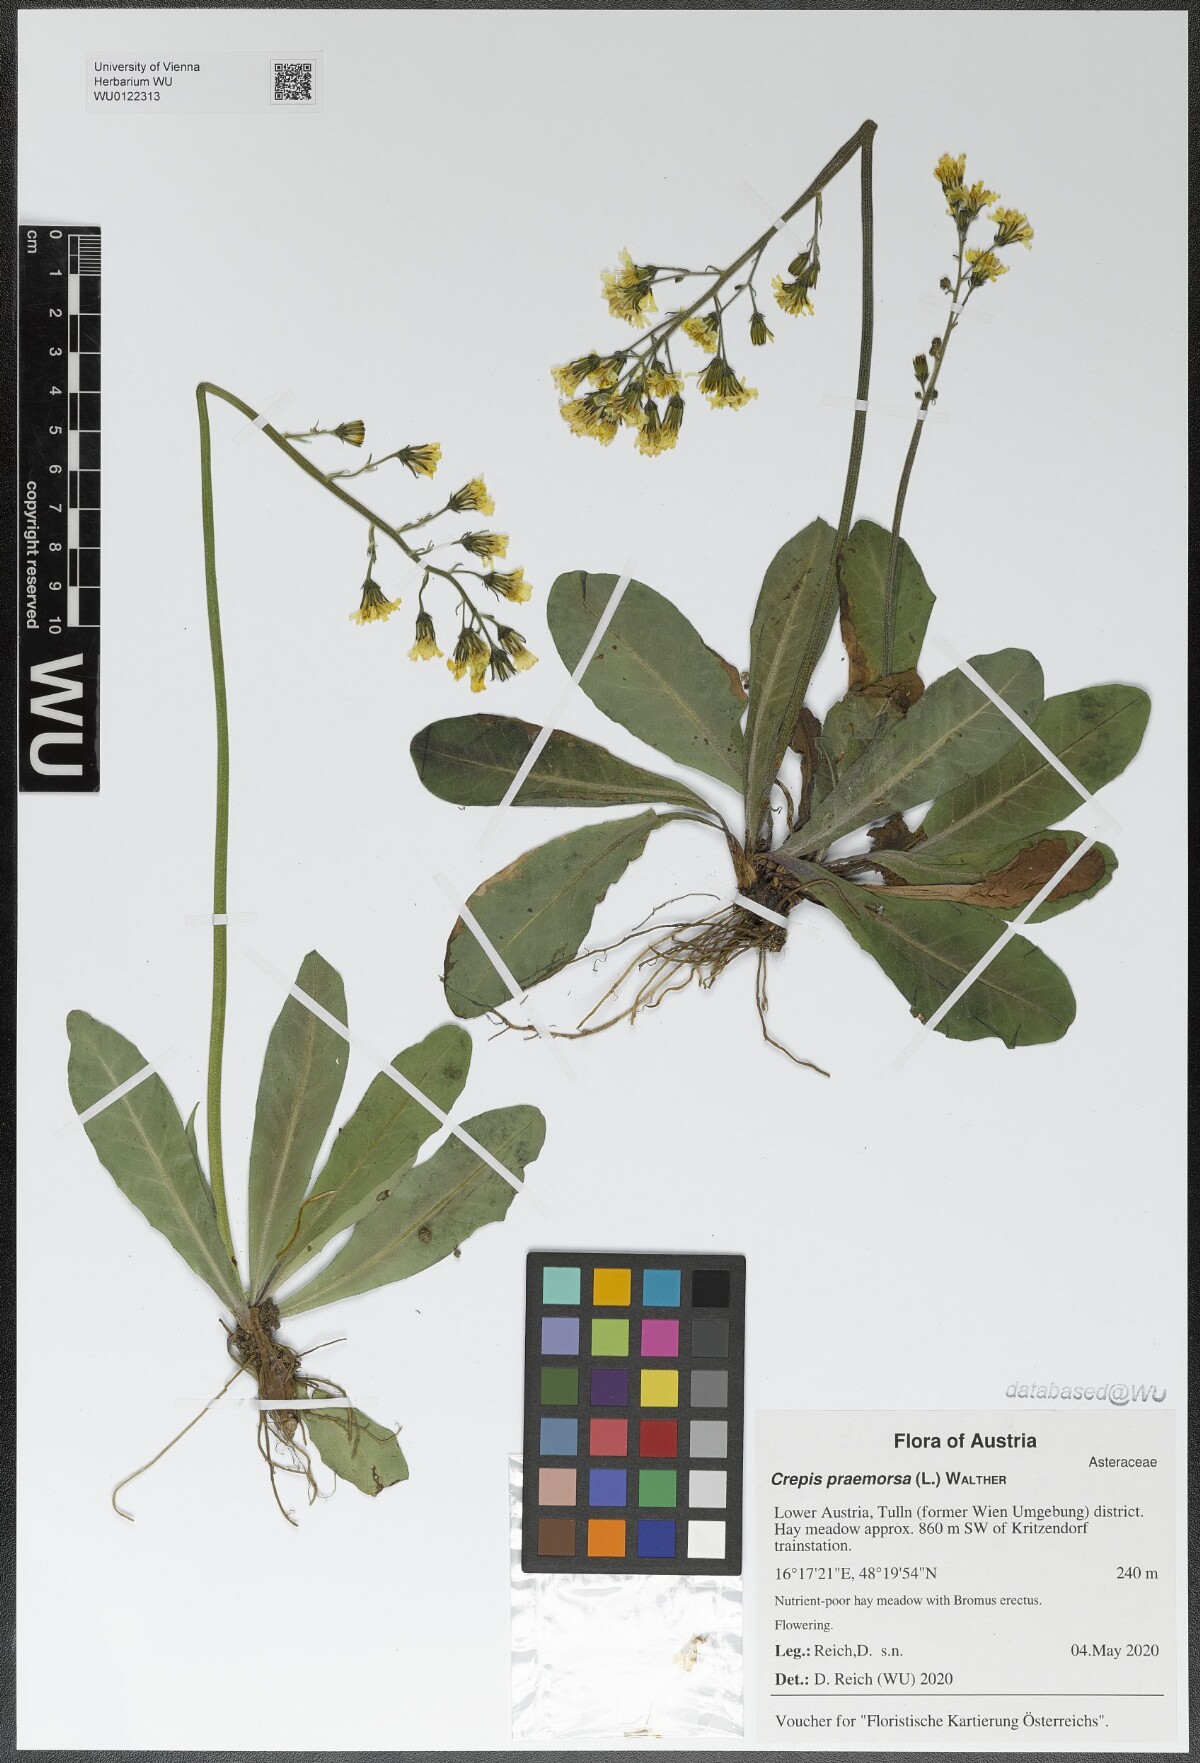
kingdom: Plantae
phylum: Tracheophyta
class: Magnoliopsida
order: Asterales
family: Asteraceae
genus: Crepis
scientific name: Crepis praemorsa
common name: Leafless hawk's-beard
